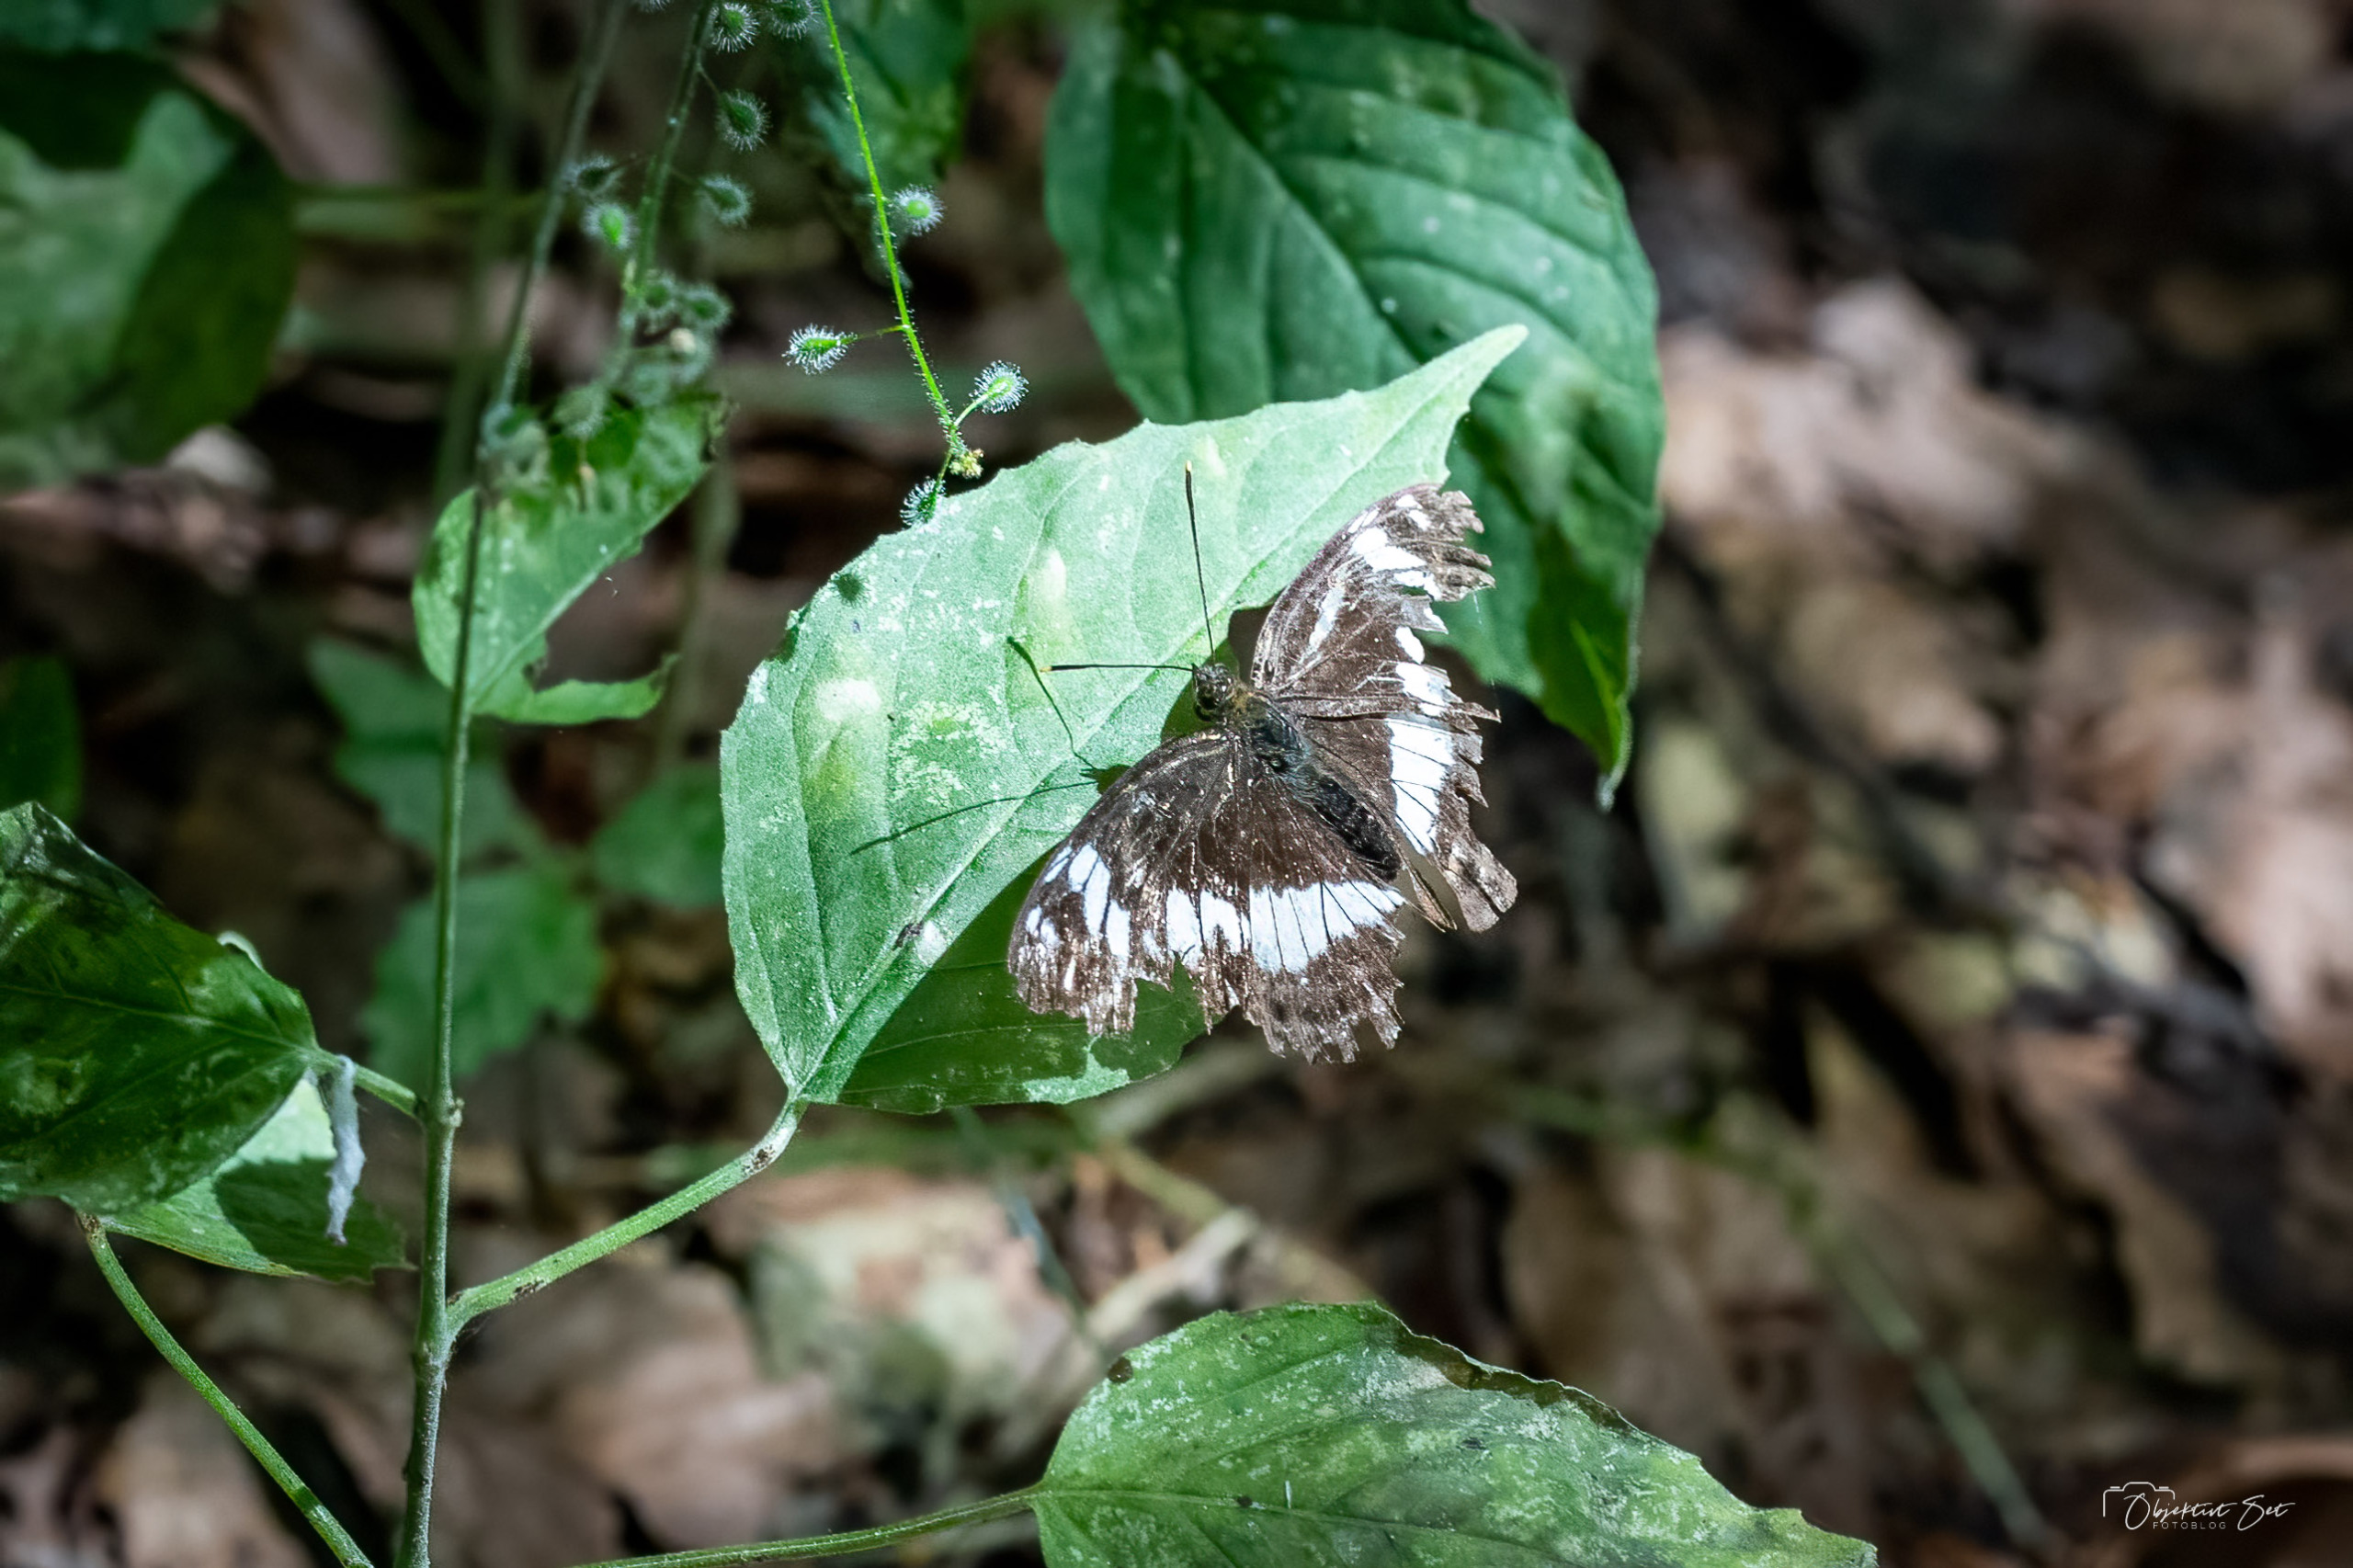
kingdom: Animalia
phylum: Arthropoda
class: Insecta
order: Lepidoptera
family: Nymphalidae
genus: Ladoga
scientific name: Ladoga camilla
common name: Hvid admiral
